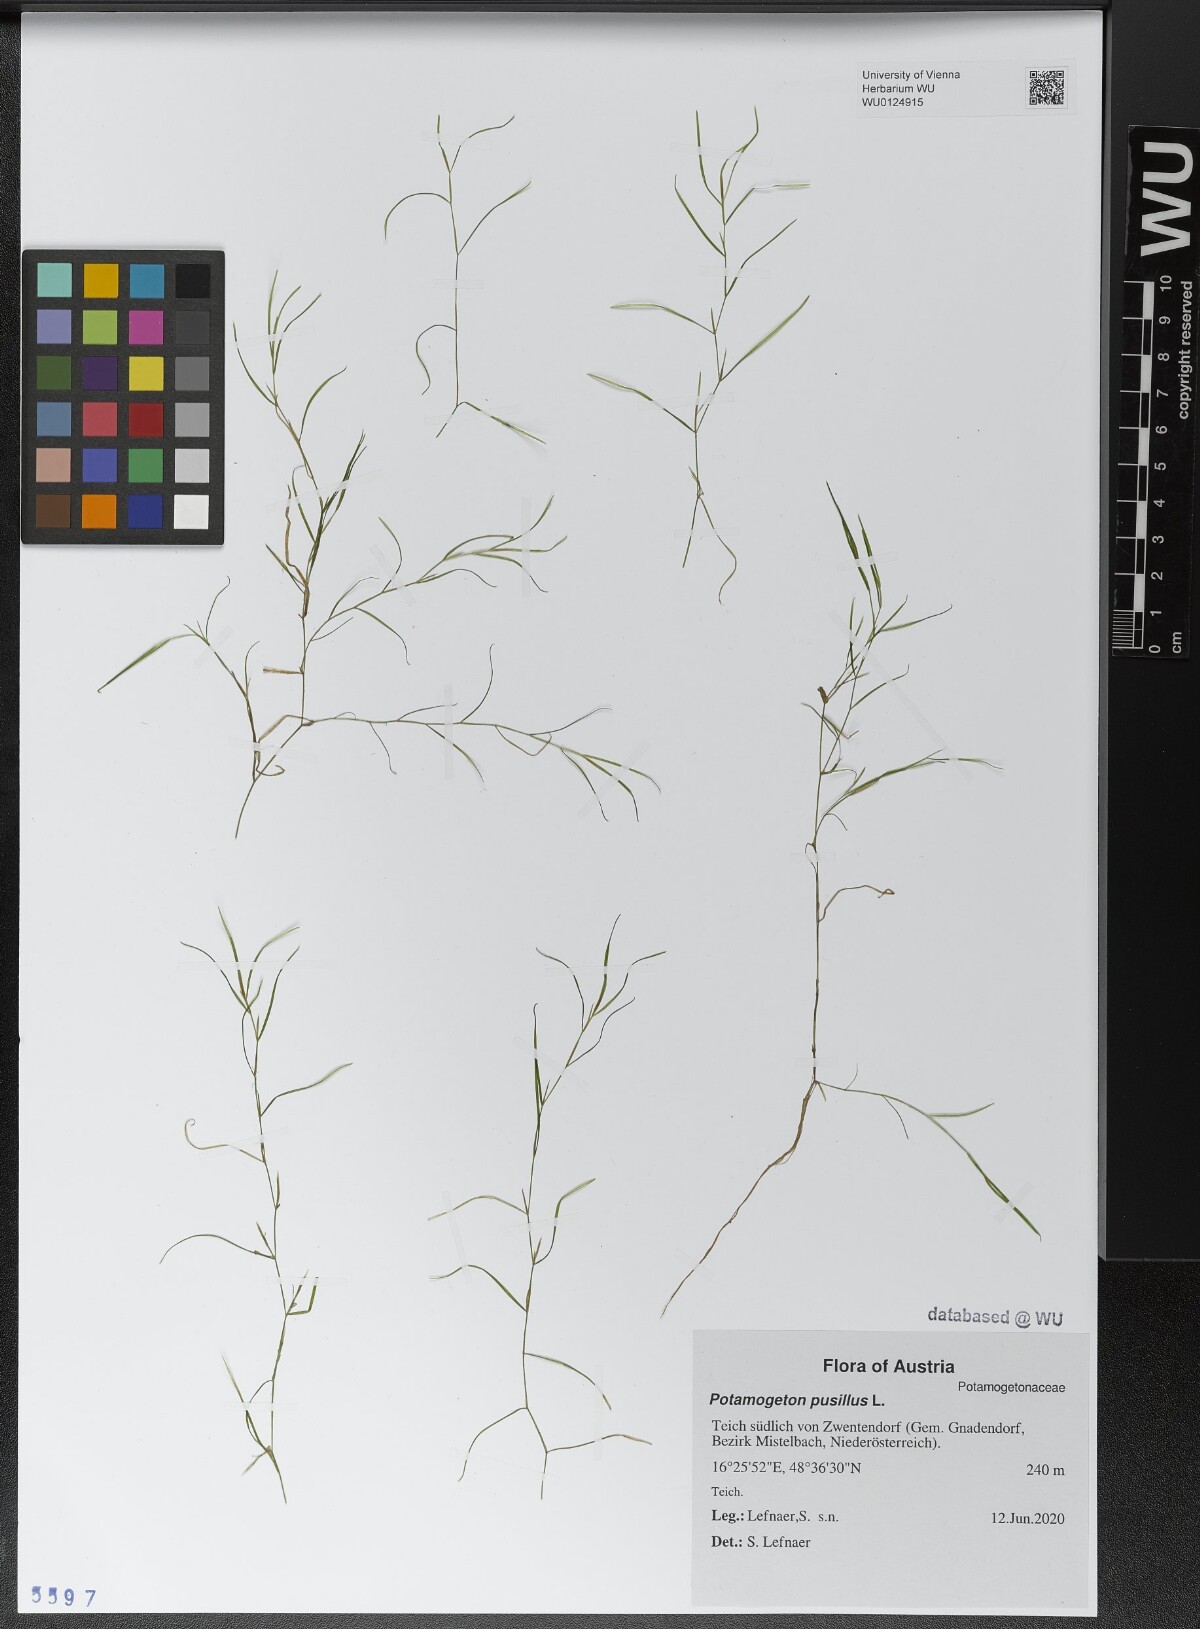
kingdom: Plantae
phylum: Tracheophyta
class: Liliopsida
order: Alismatales
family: Potamogetonaceae
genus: Potamogeton
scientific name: Potamogeton pusillus
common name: Lesser pondweed
